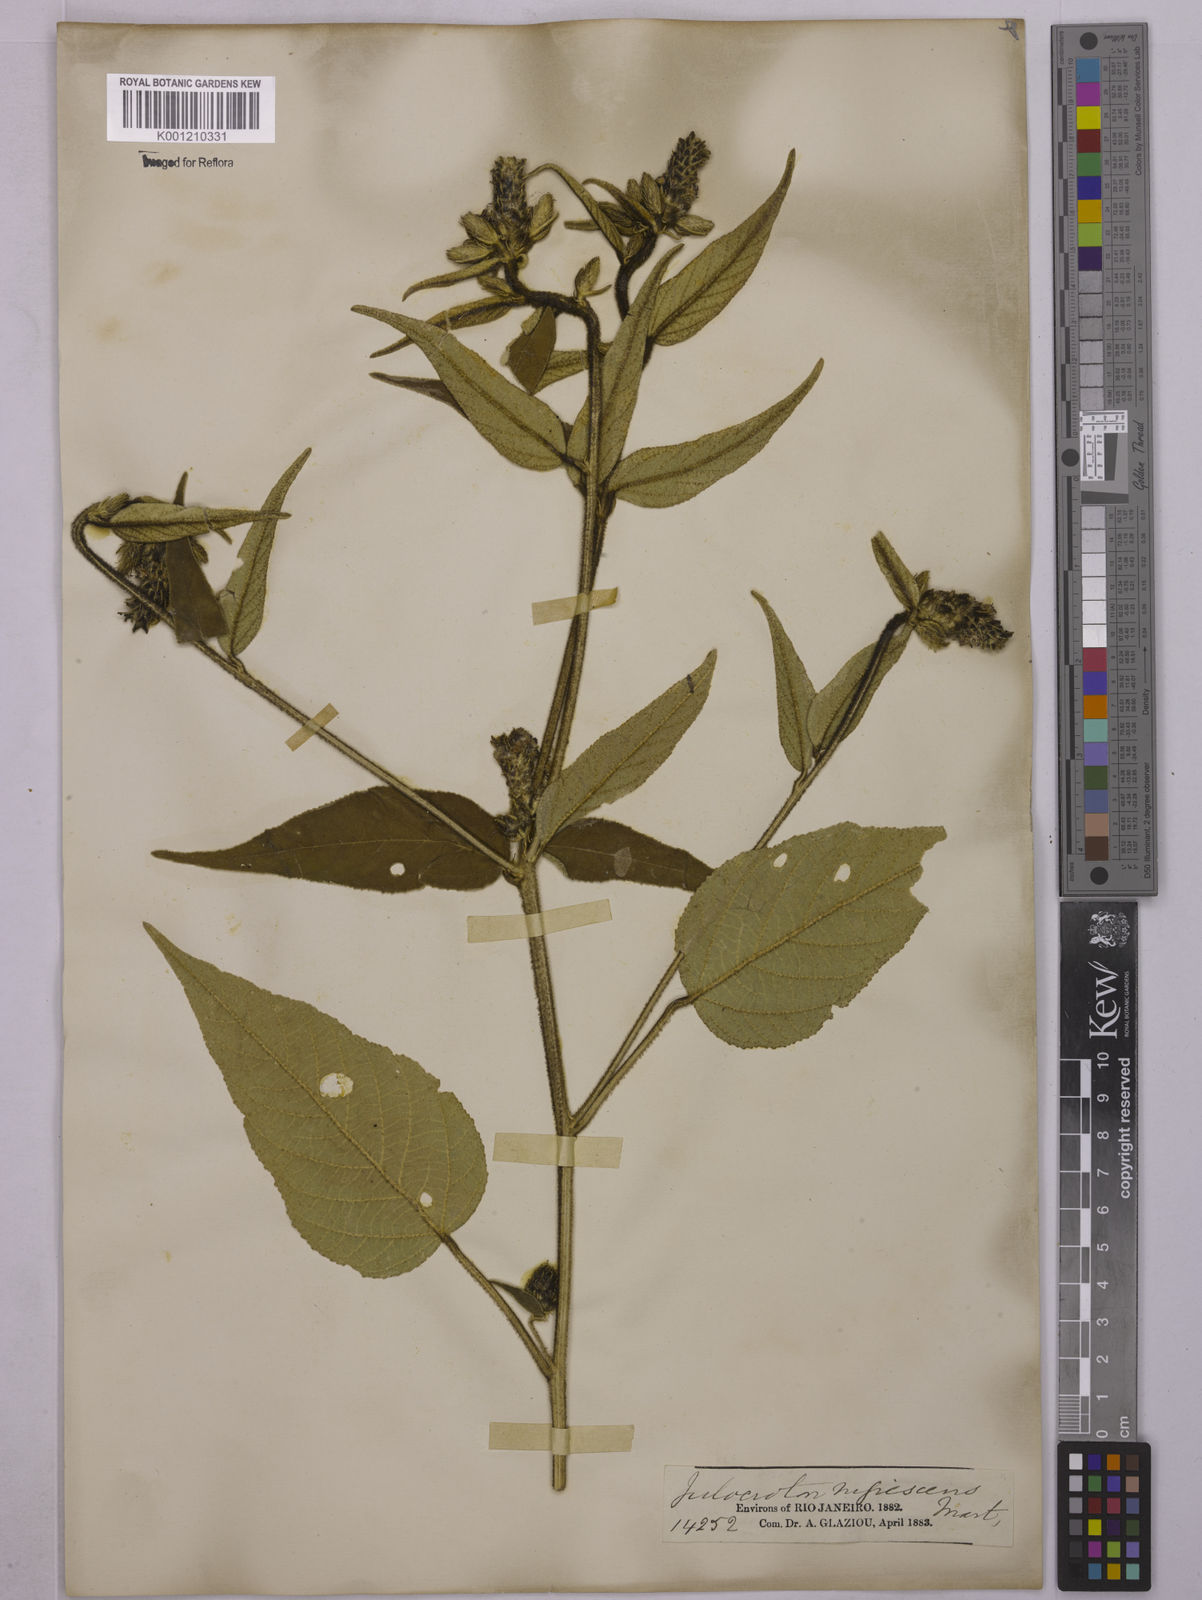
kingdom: Plantae
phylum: Tracheophyta
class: Magnoliopsida
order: Malpighiales
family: Euphorbiaceae
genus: Croton
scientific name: Croton gnaphaloides
